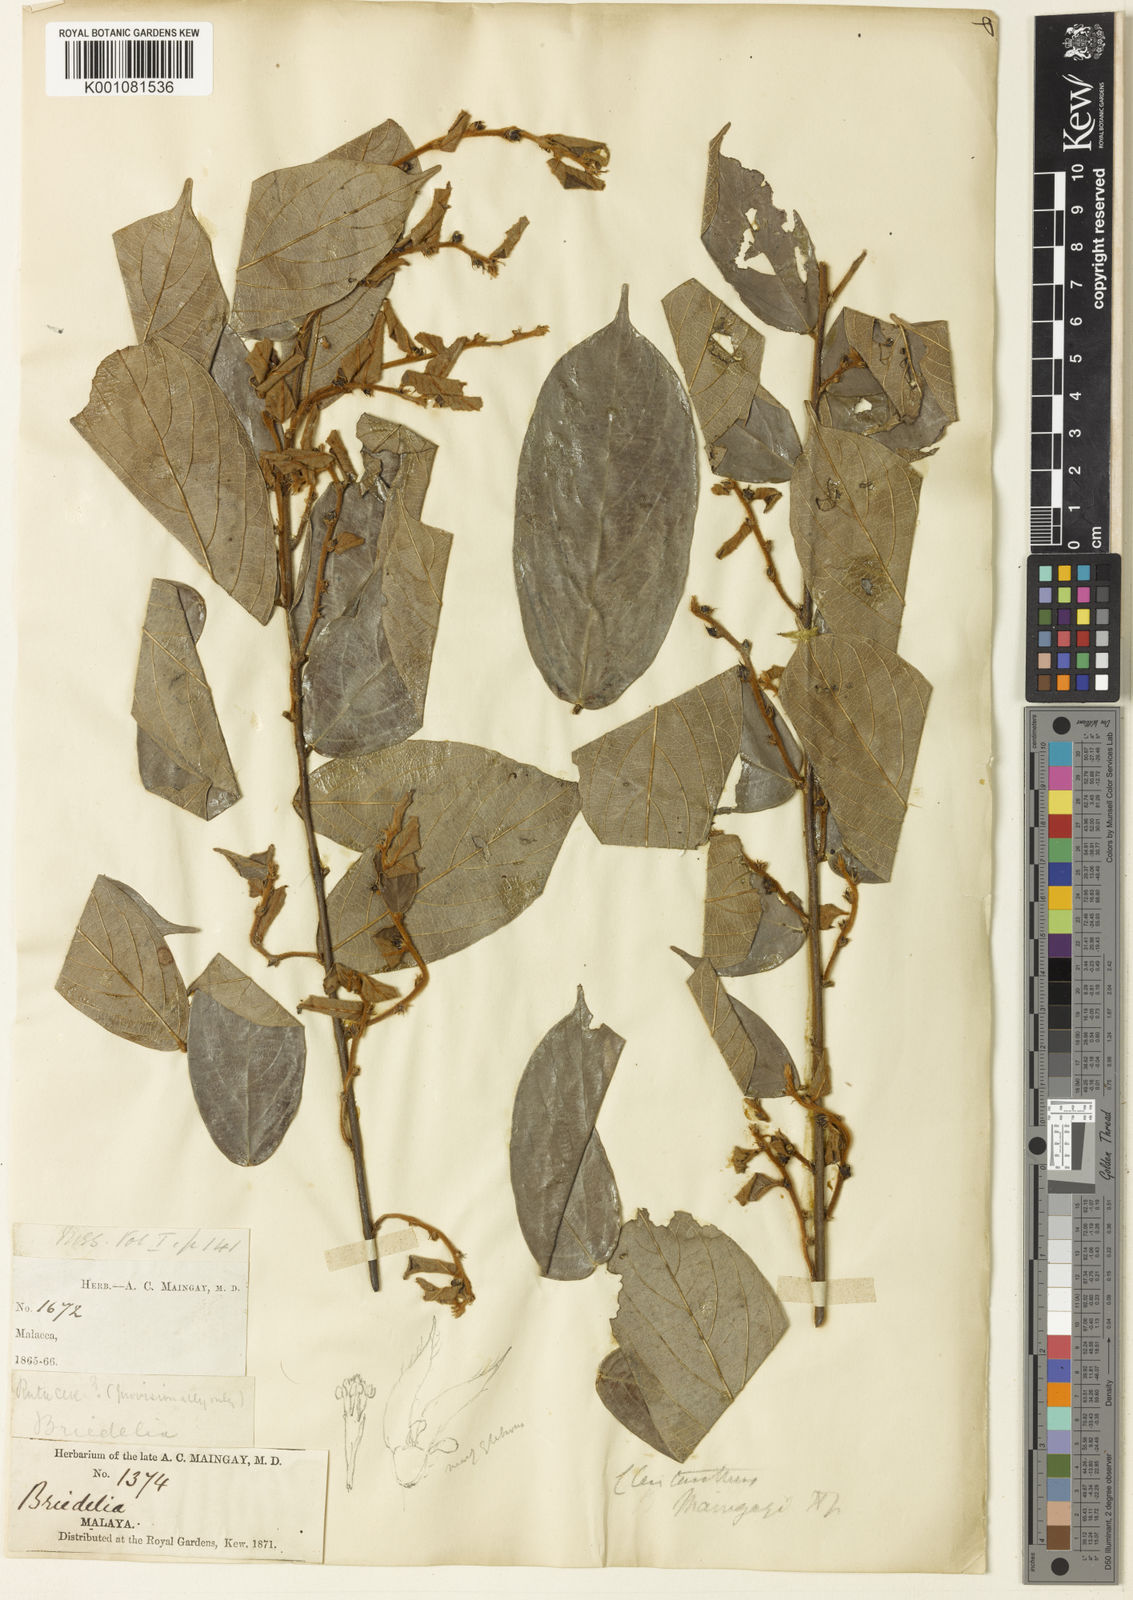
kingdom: Plantae
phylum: Tracheophyta
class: Magnoliopsida
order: Malpighiales
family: Phyllanthaceae
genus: Cleistanthus
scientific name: Cleistanthus maingayi
